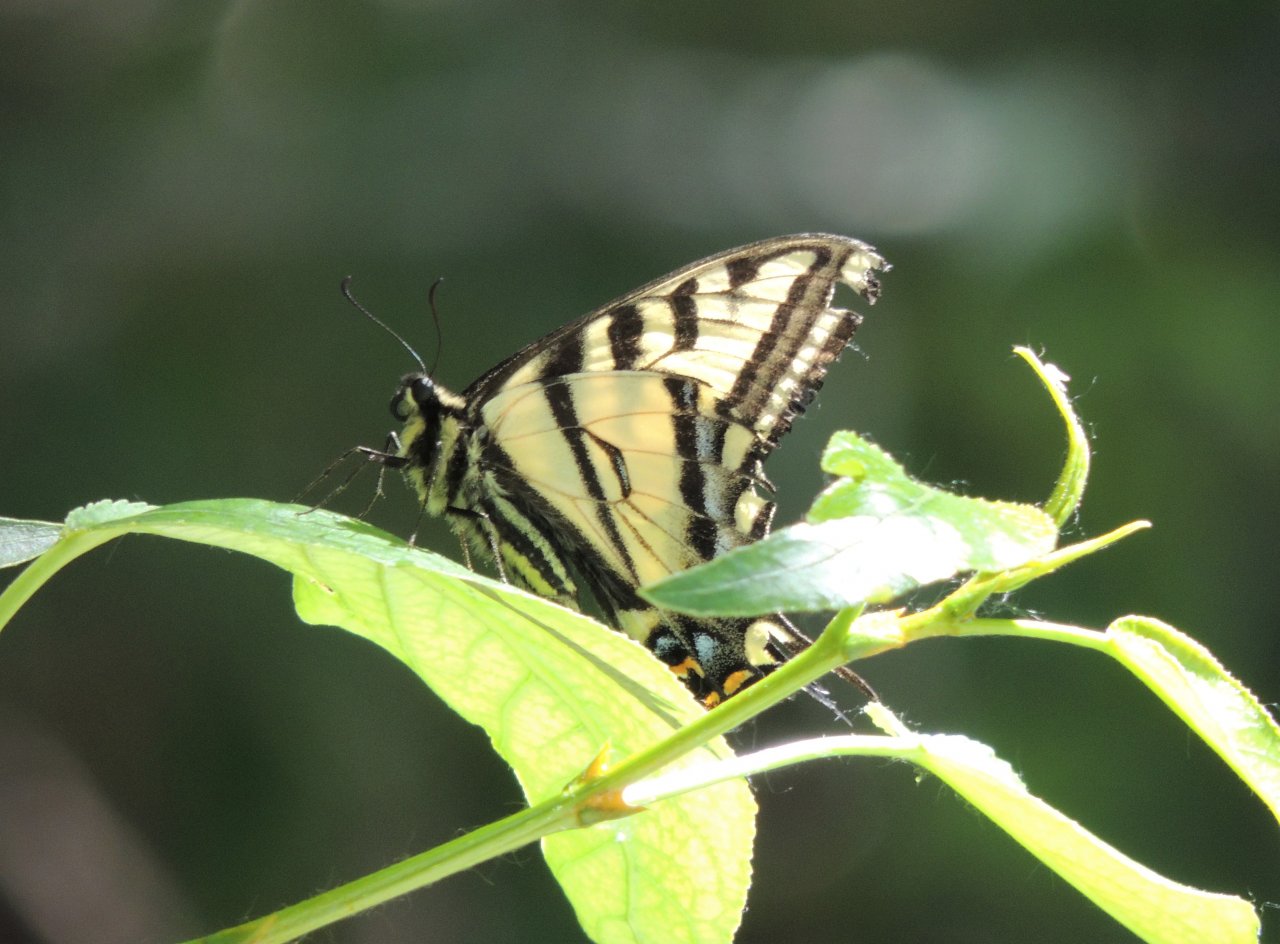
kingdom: Animalia
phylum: Arthropoda
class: Insecta
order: Lepidoptera
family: Papilionidae
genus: Pterourus
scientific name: Pterourus rutulus
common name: Western Tiger Swallowtail
